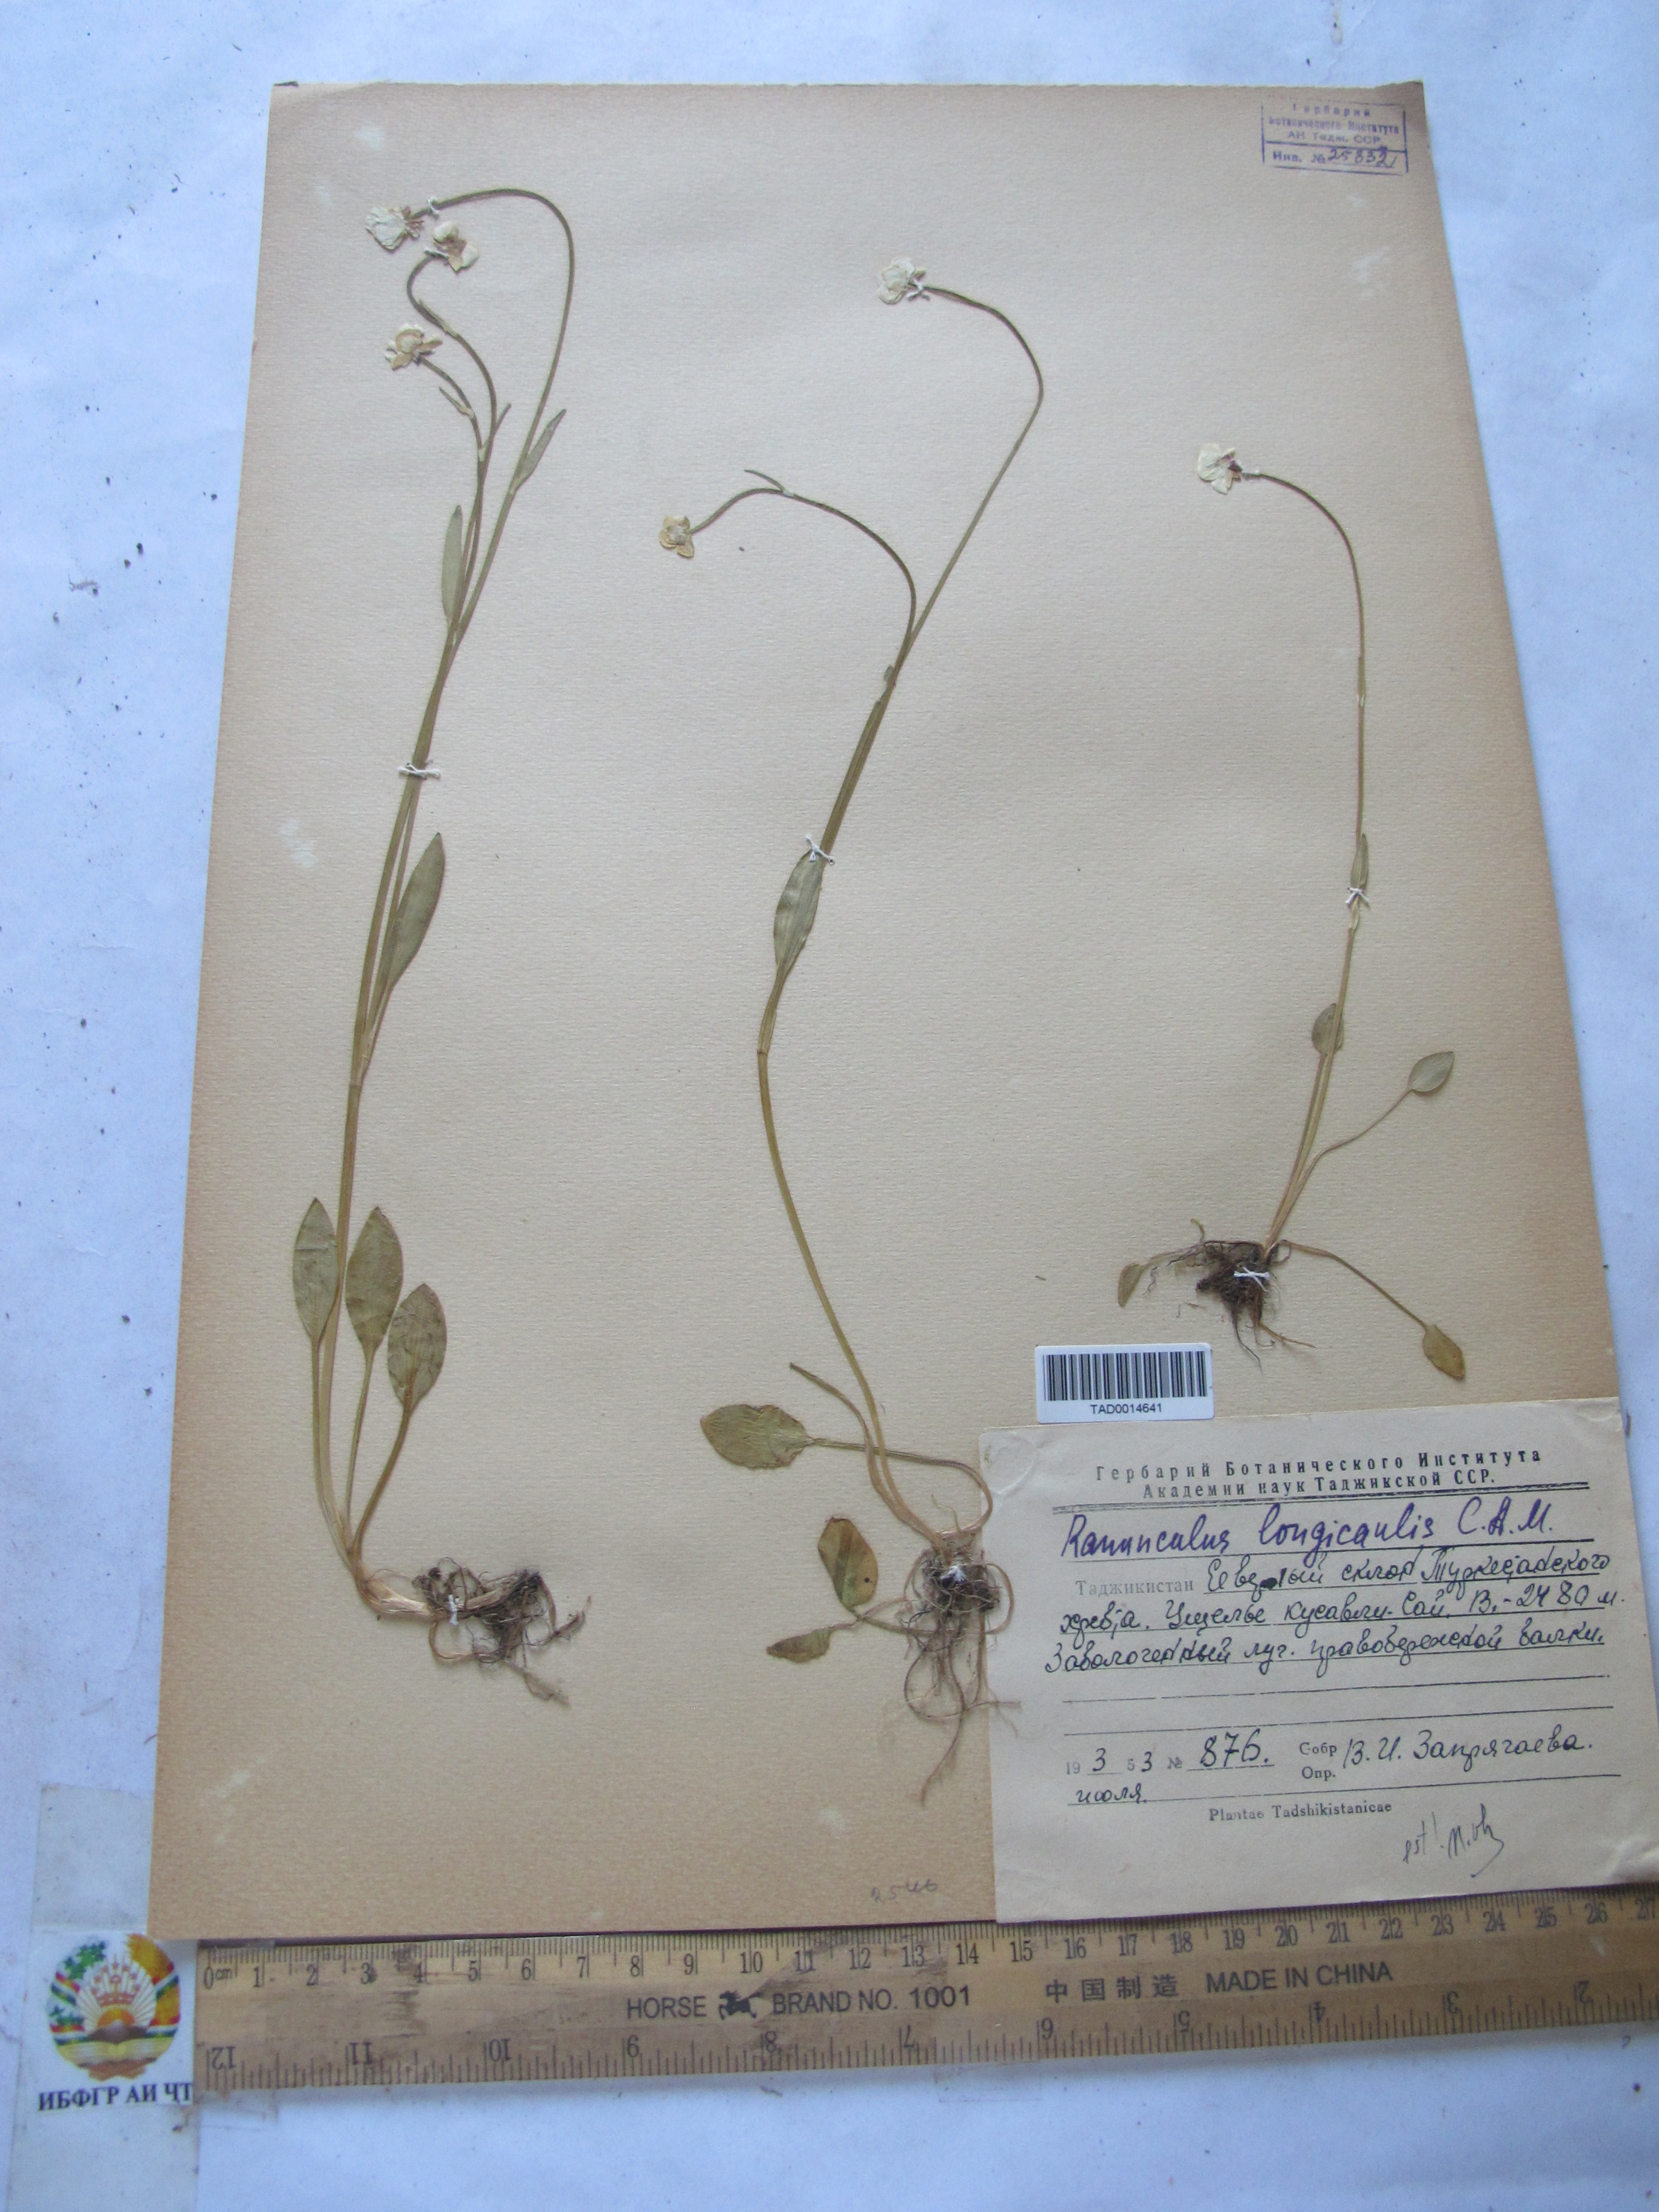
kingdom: Plantae
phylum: Tracheophyta
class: Magnoliopsida
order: Ranunculales
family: Ranunculaceae
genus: Ranunculus
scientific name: Ranunculus longicaulis
